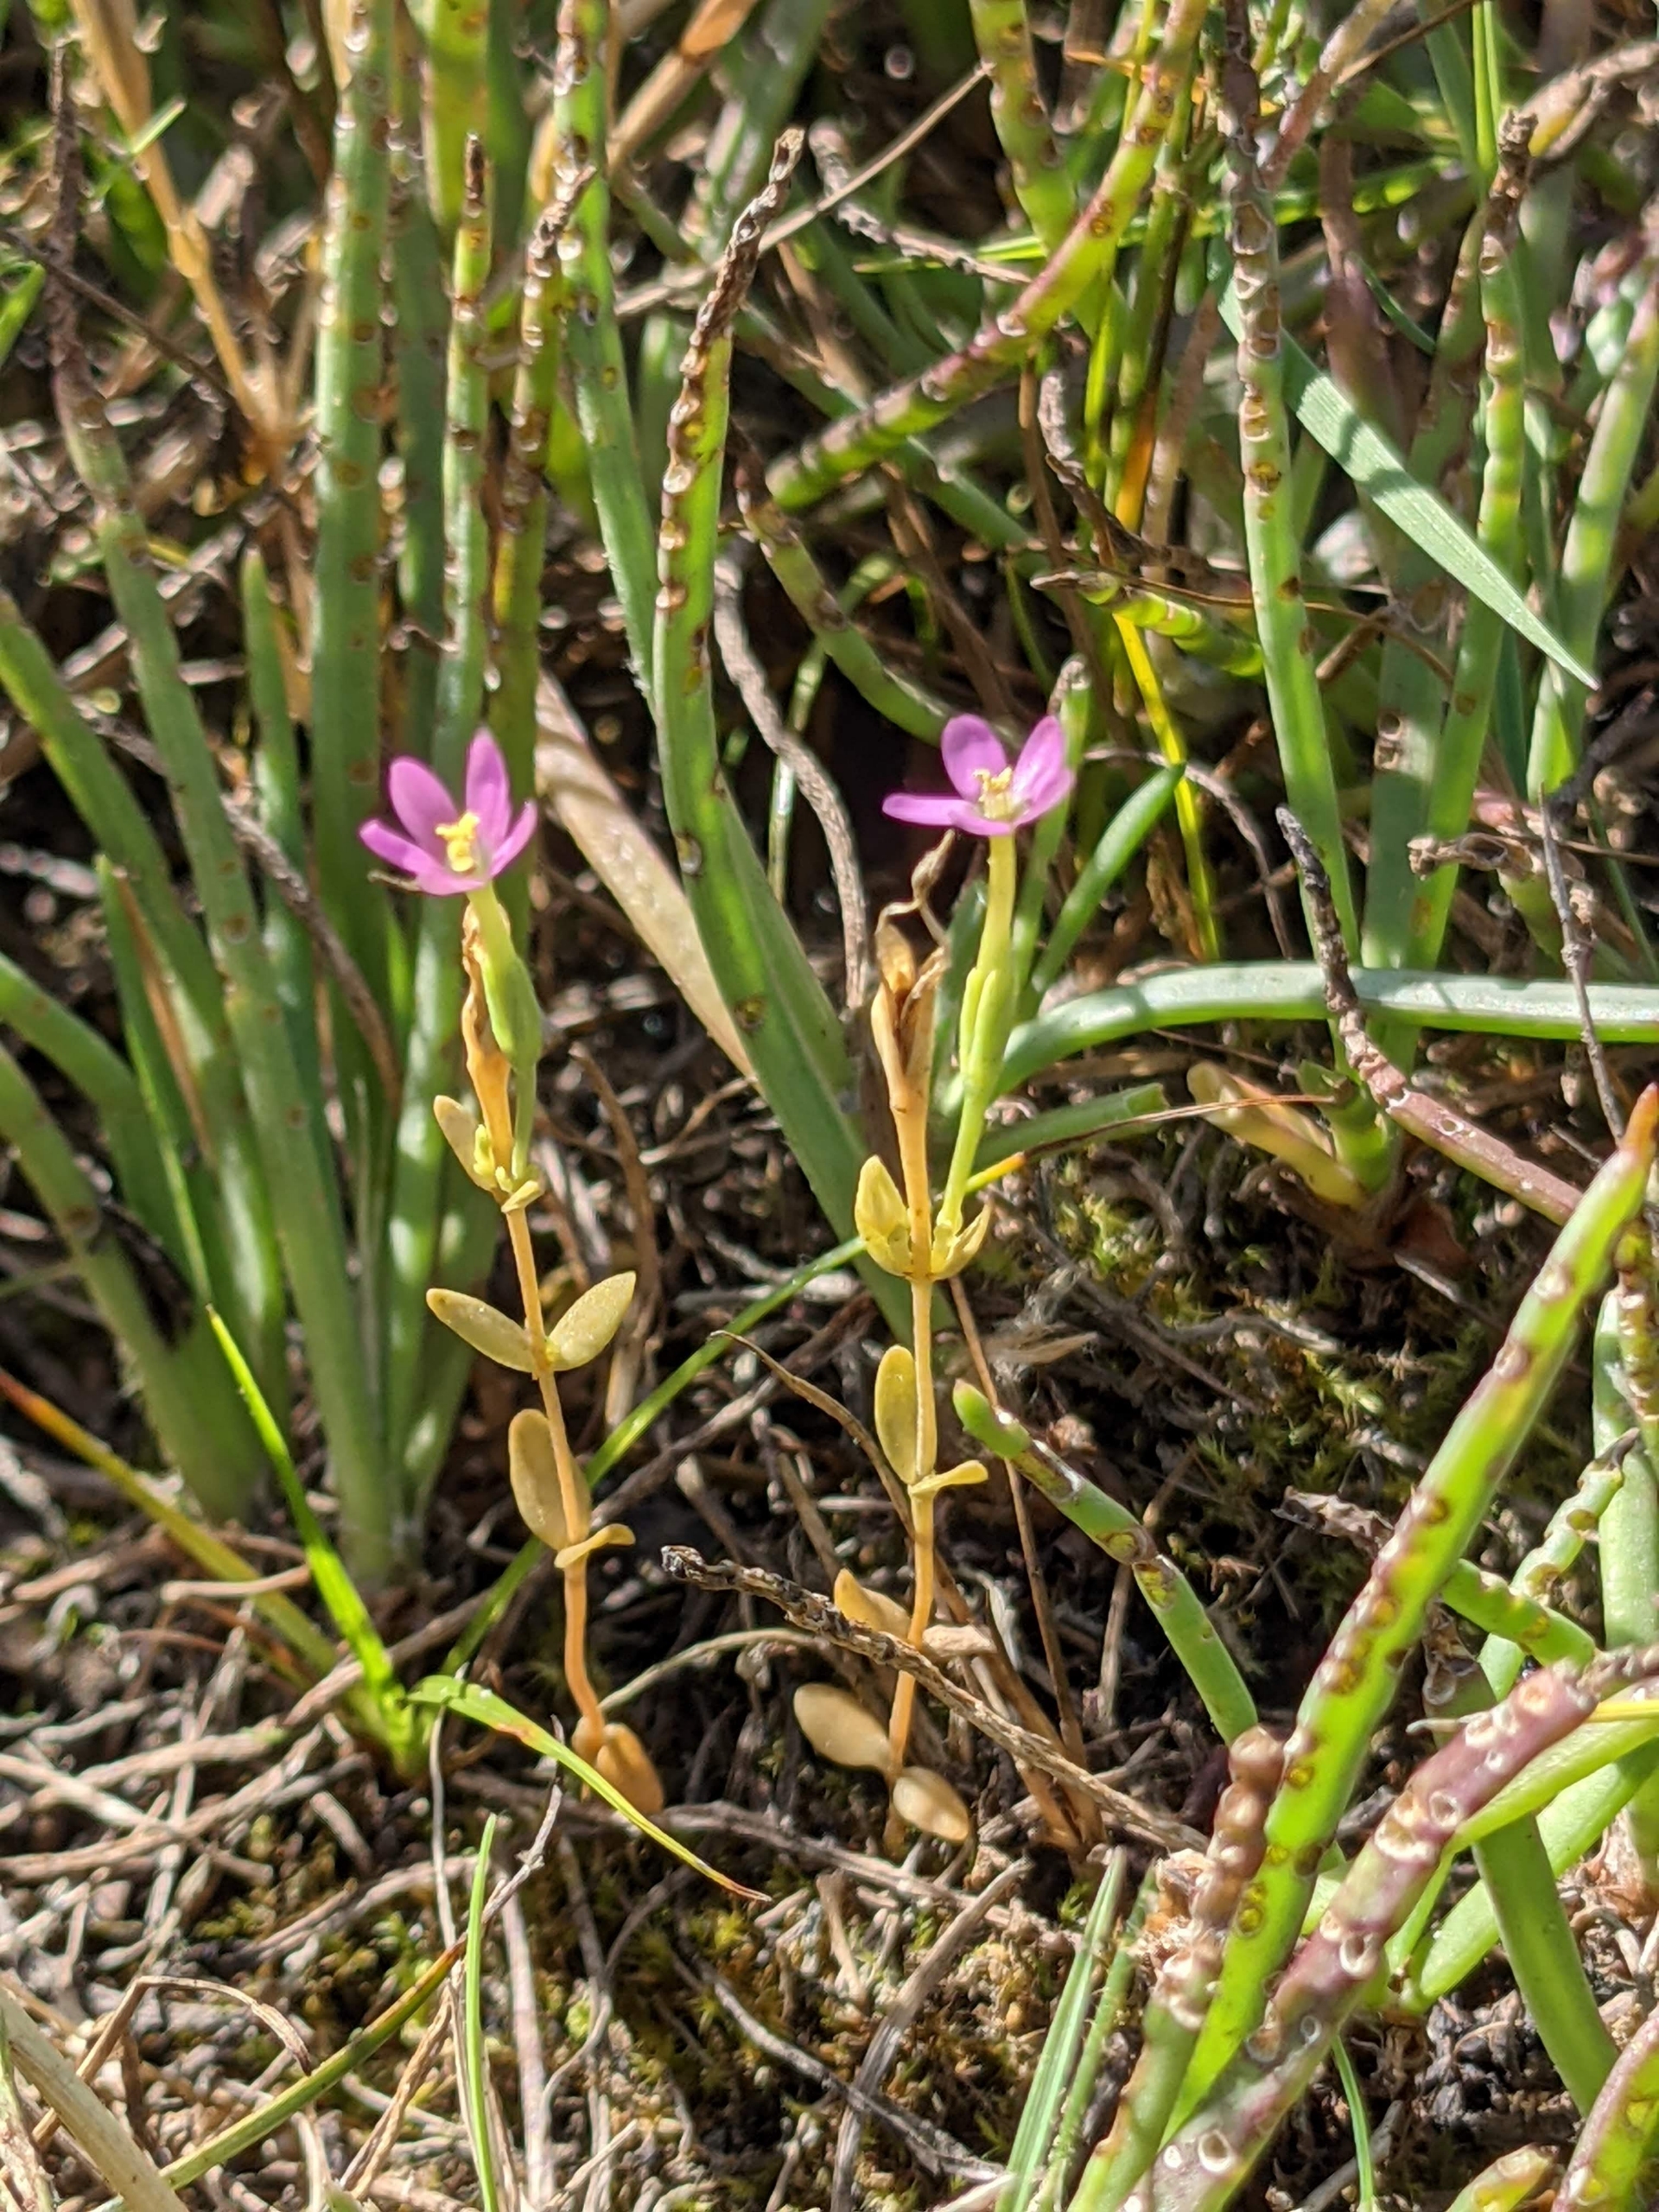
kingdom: Plantae
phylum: Tracheophyta
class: Magnoliopsida
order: Gentianales
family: Gentianaceae
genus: Centaurium
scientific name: Centaurium pulchellum
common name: Liden tusindgylden
